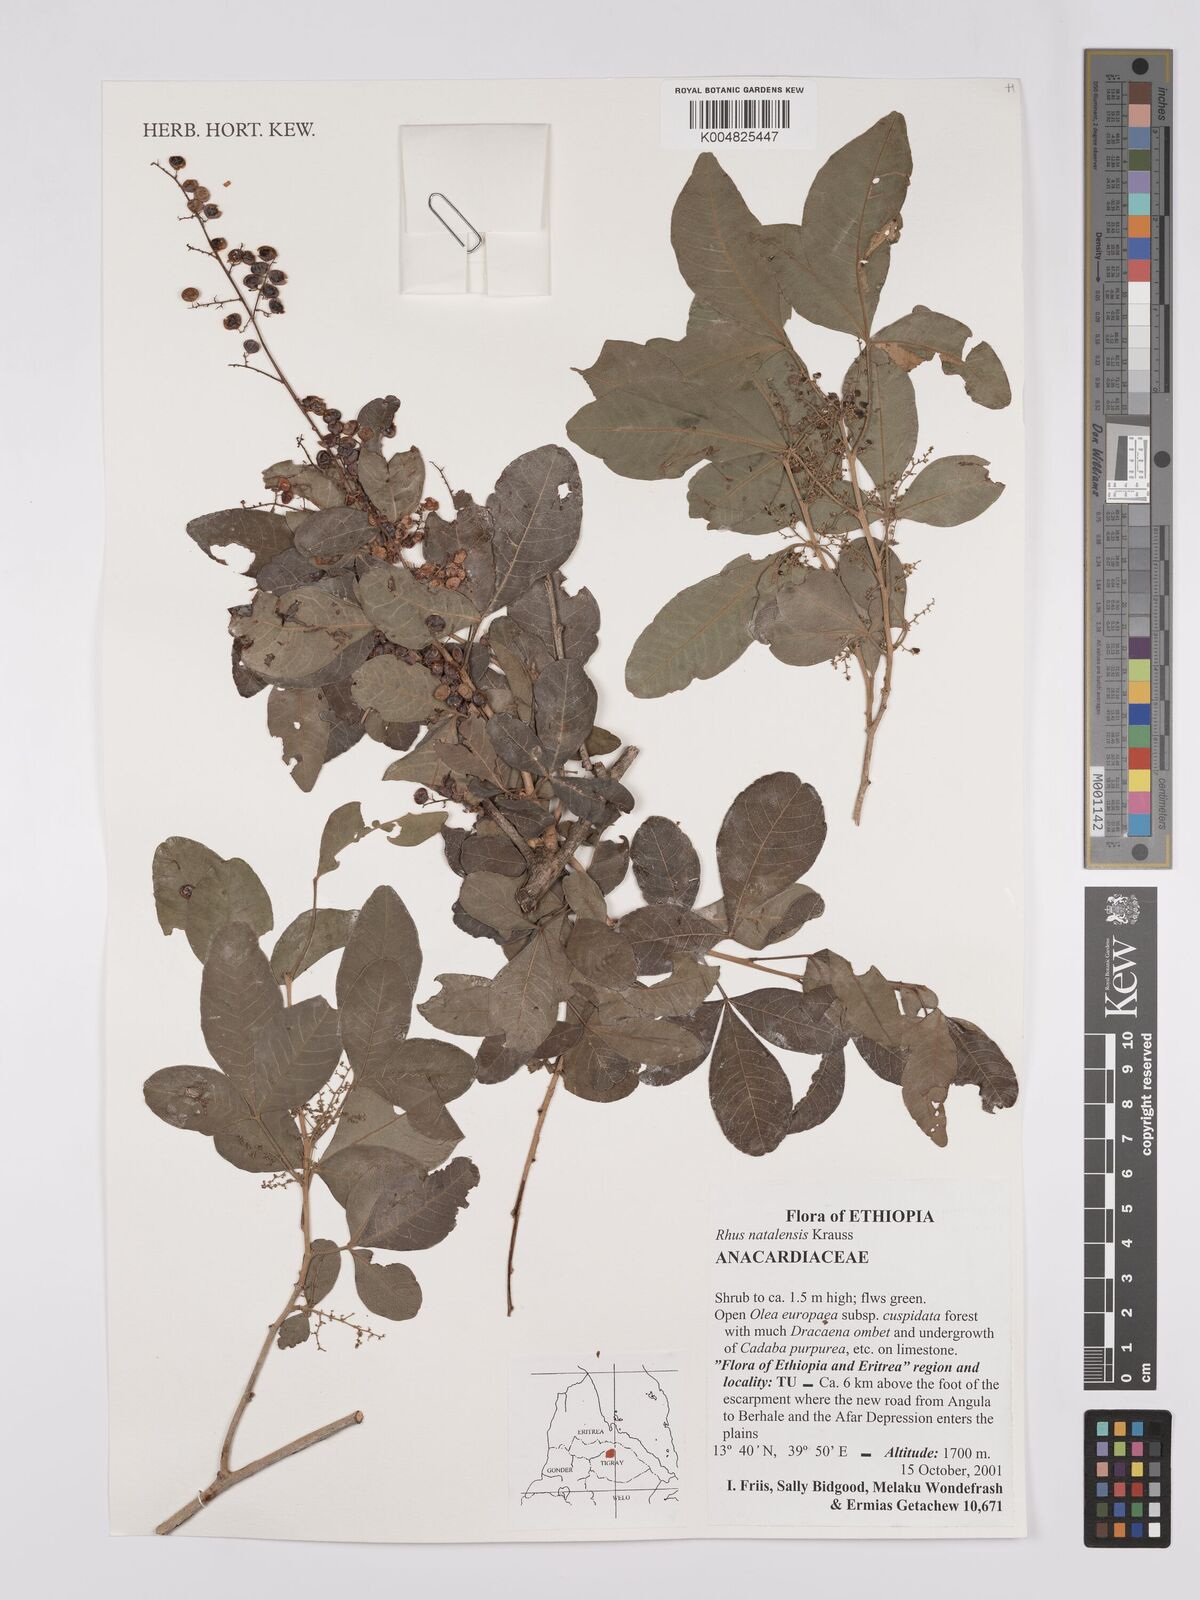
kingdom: Plantae
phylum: Tracheophyta
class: Magnoliopsida
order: Sapindales
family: Anacardiaceae
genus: Searsia
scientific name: Searsia natalensis
